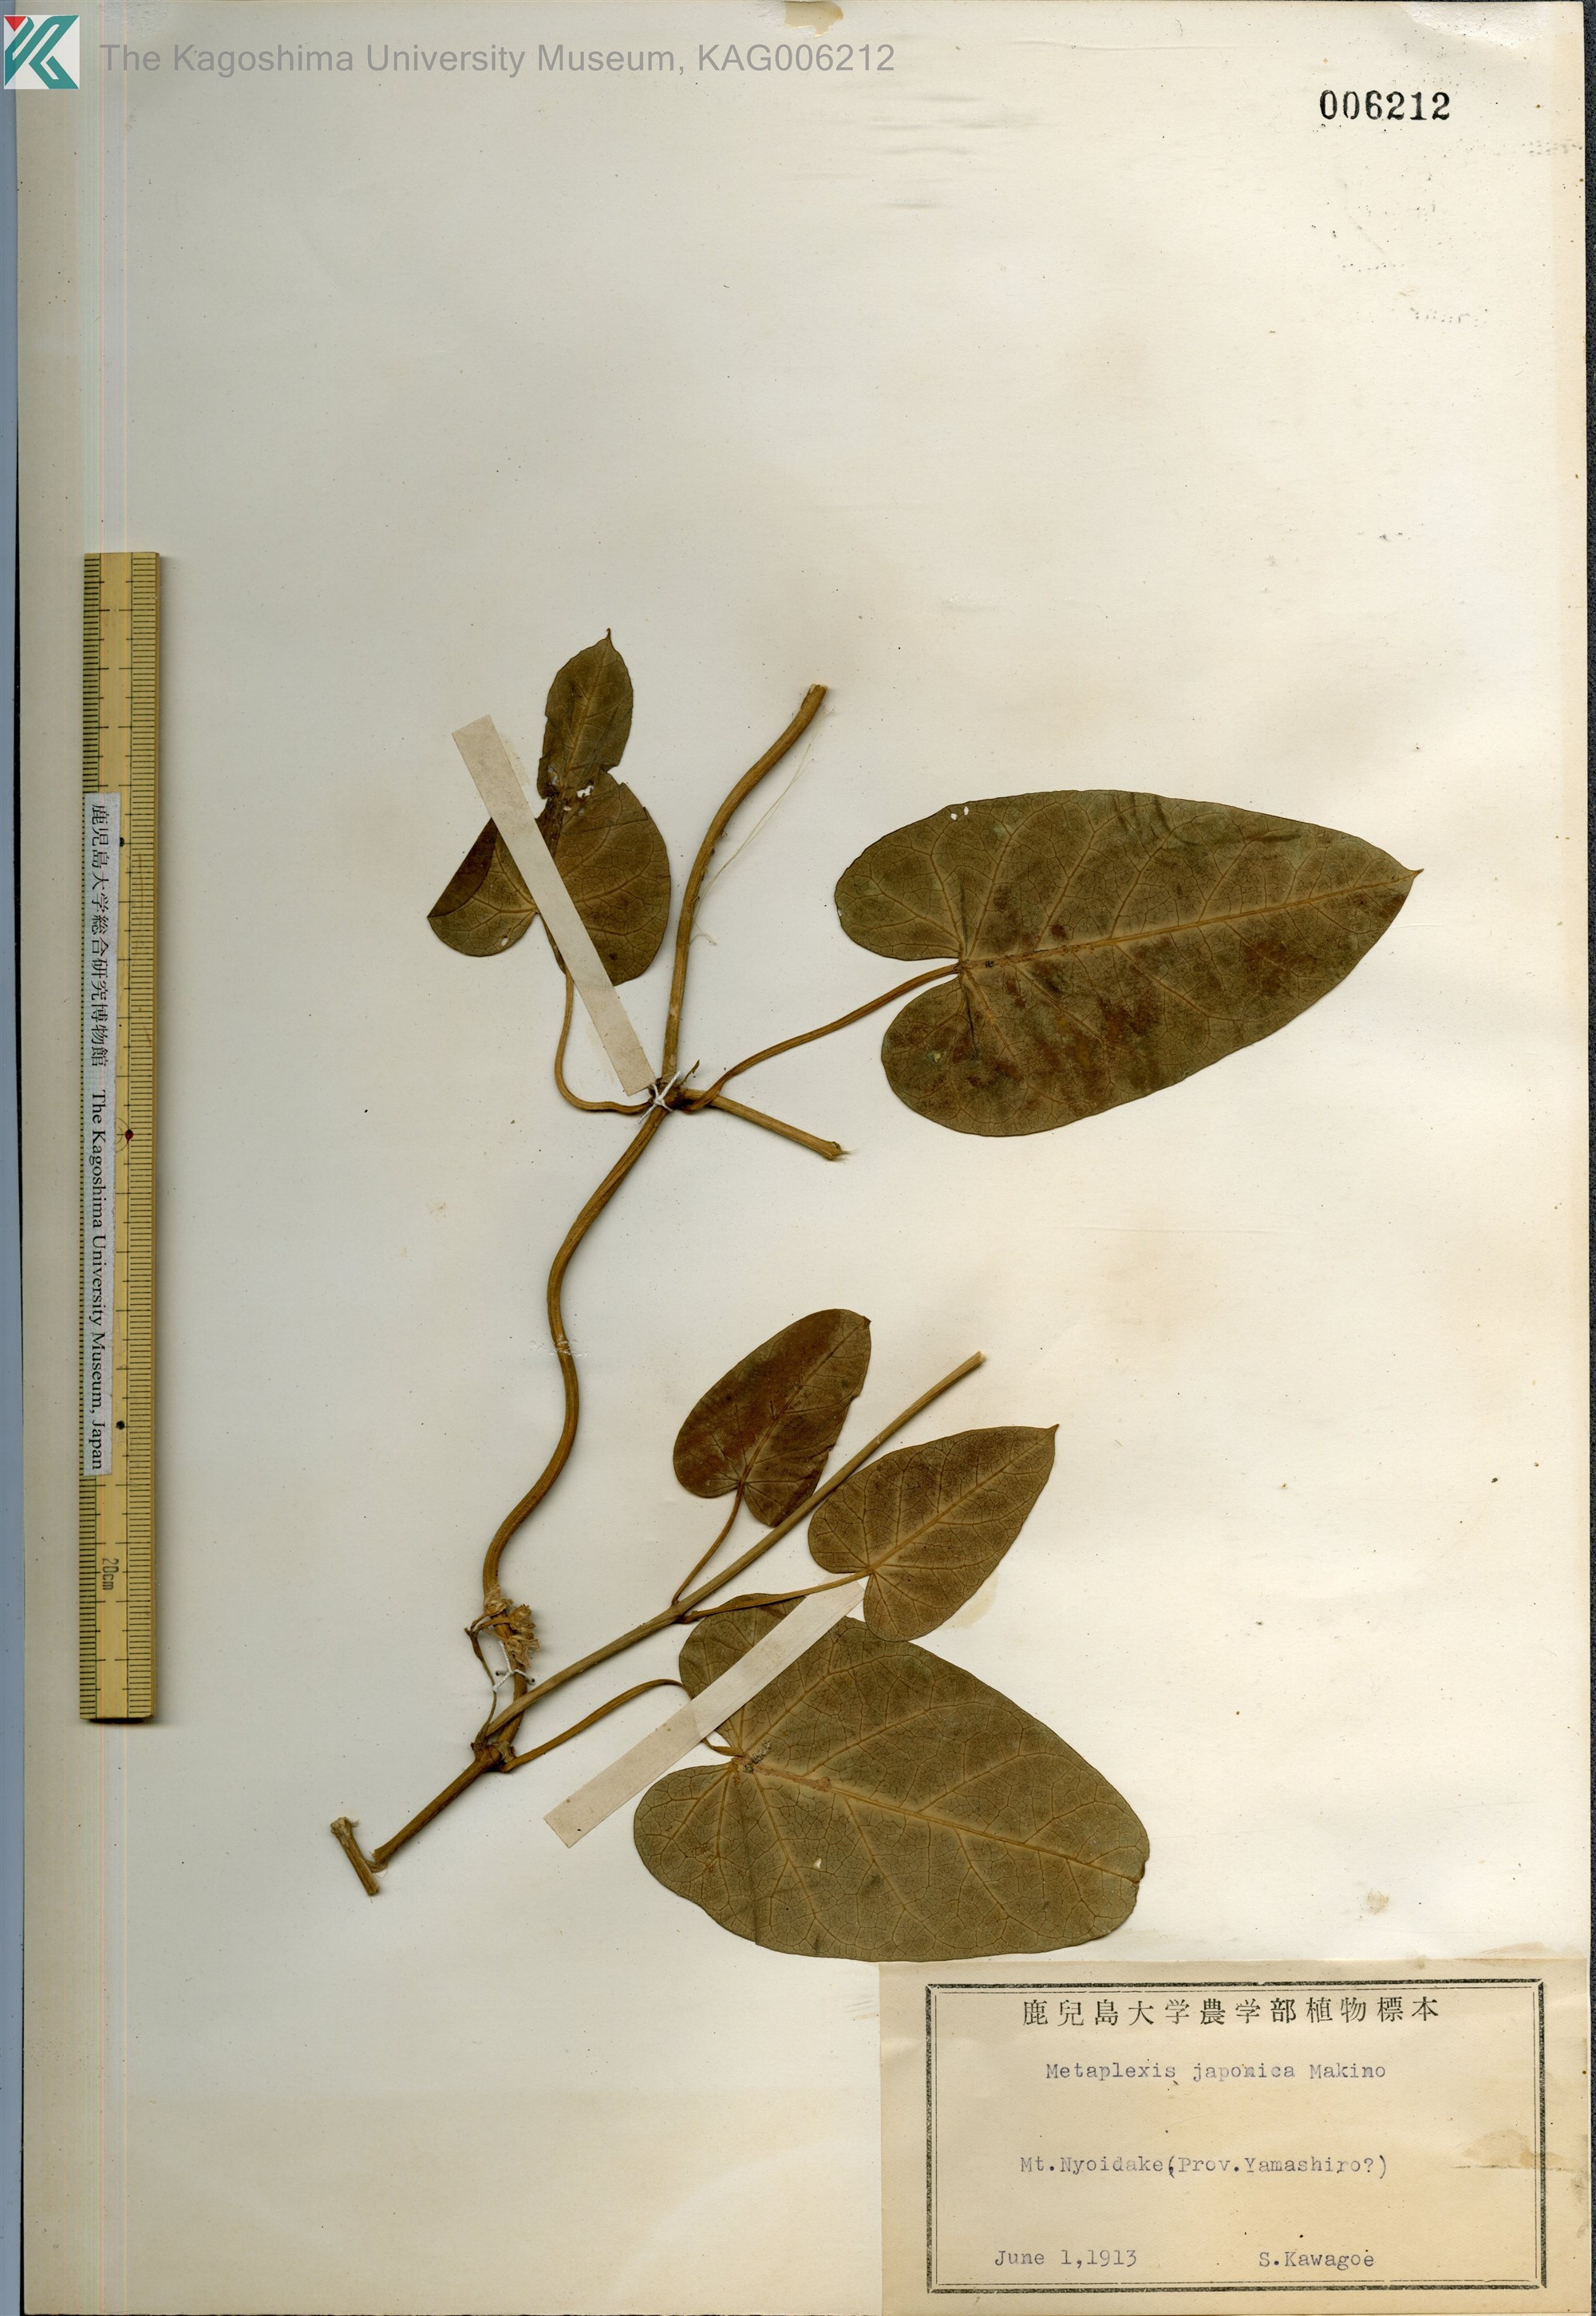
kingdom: Plantae
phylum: Tracheophyta
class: Magnoliopsida
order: Gentianales
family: Apocynaceae
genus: Cynanchum
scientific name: Cynanchum rostellatum
